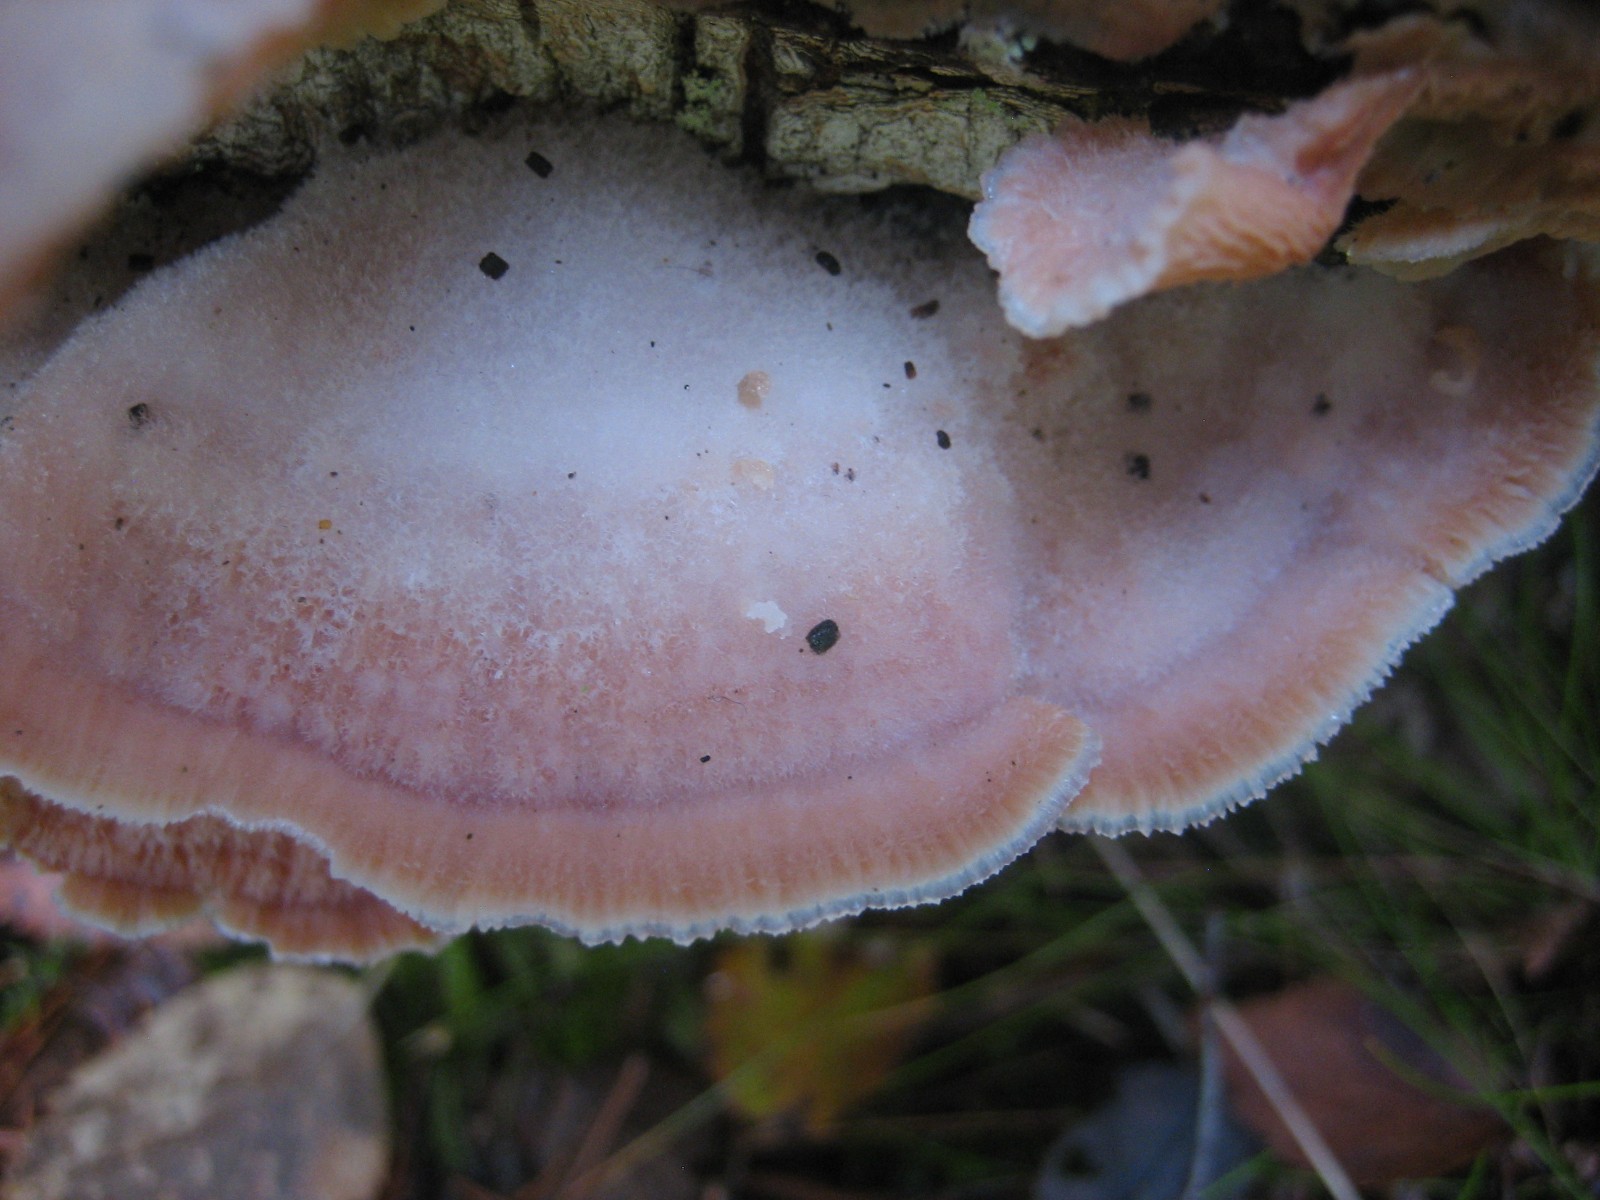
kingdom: Fungi
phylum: Basidiomycota
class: Agaricomycetes
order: Polyporales
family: Meruliaceae
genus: Phlebia
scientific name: Phlebia tremellosa
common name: bævrende åresvamp
